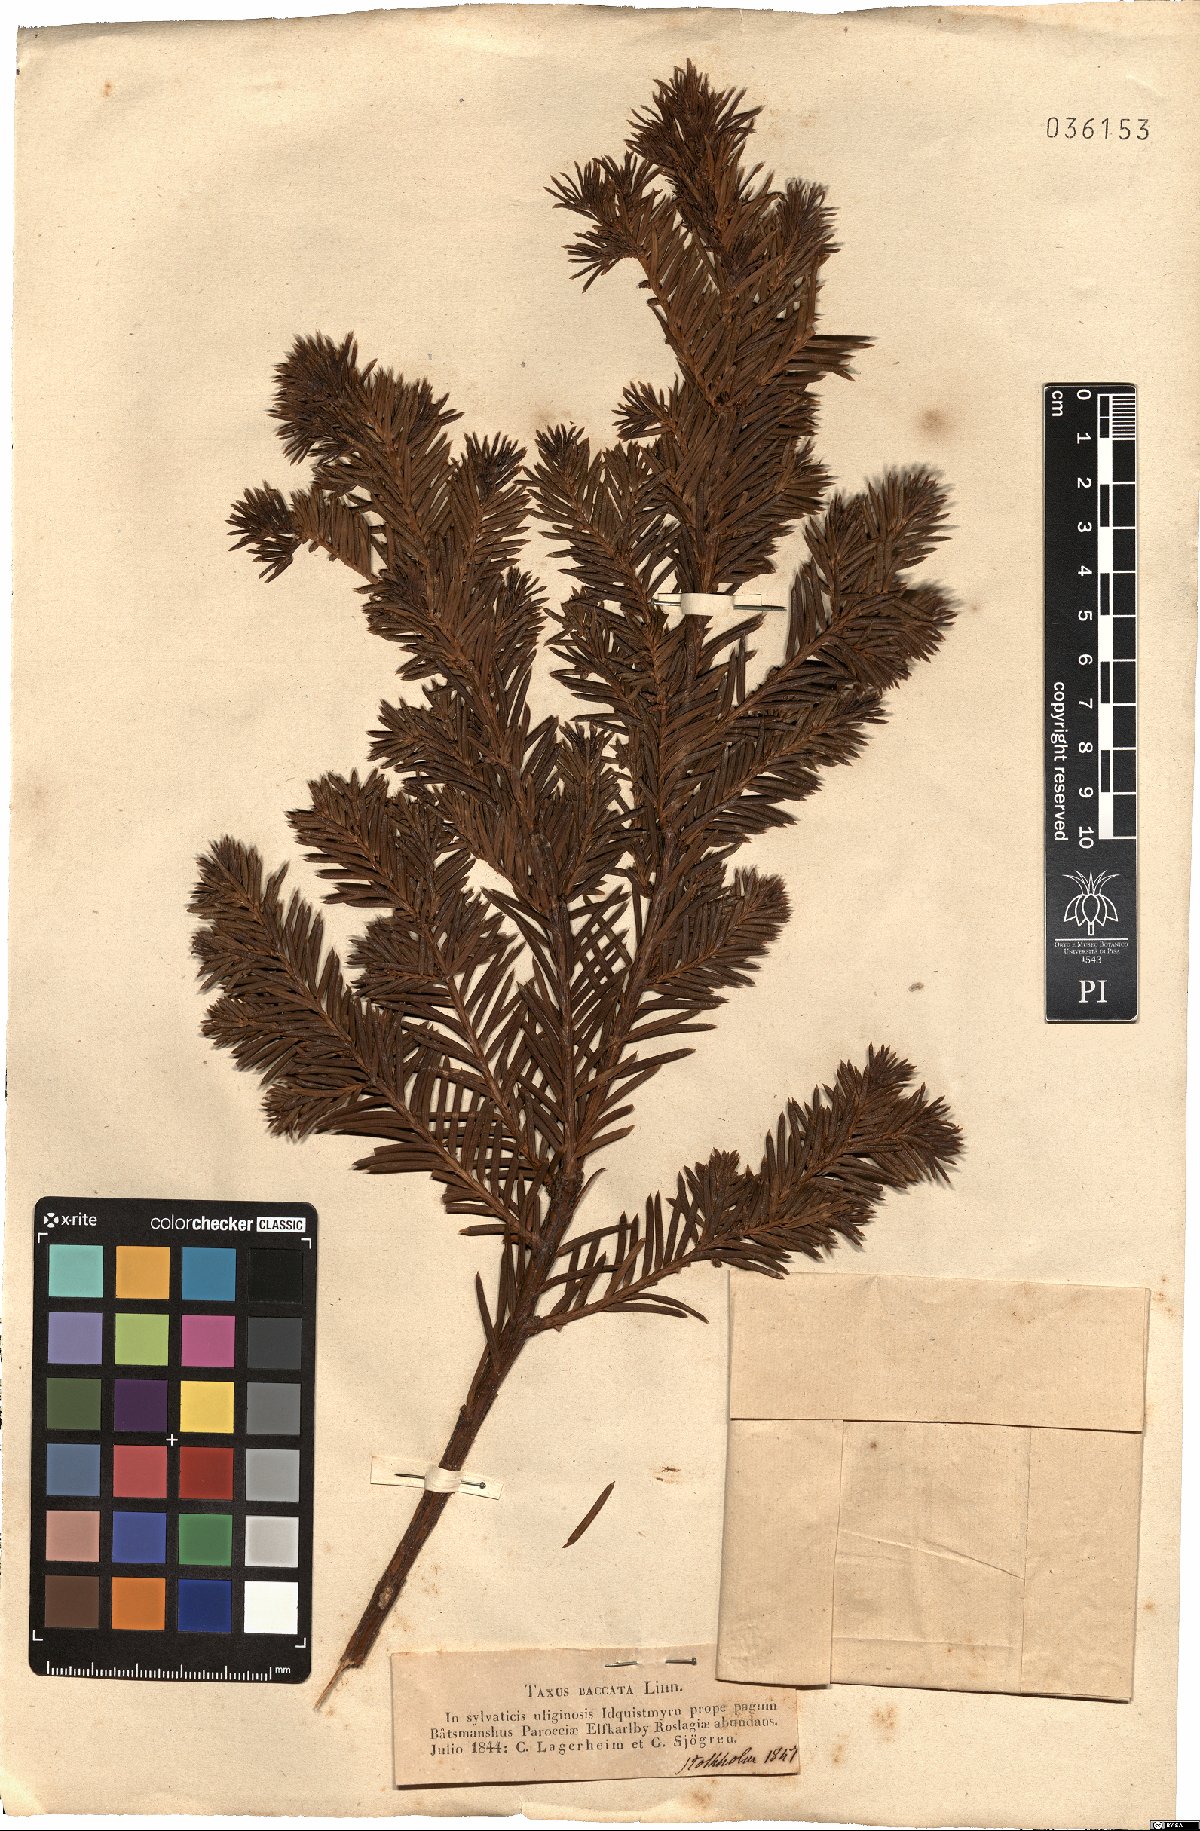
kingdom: Plantae
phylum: Tracheophyta
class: Pinopsida
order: Pinales
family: Taxaceae
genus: Taxus
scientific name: Taxus baccata
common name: Yew
